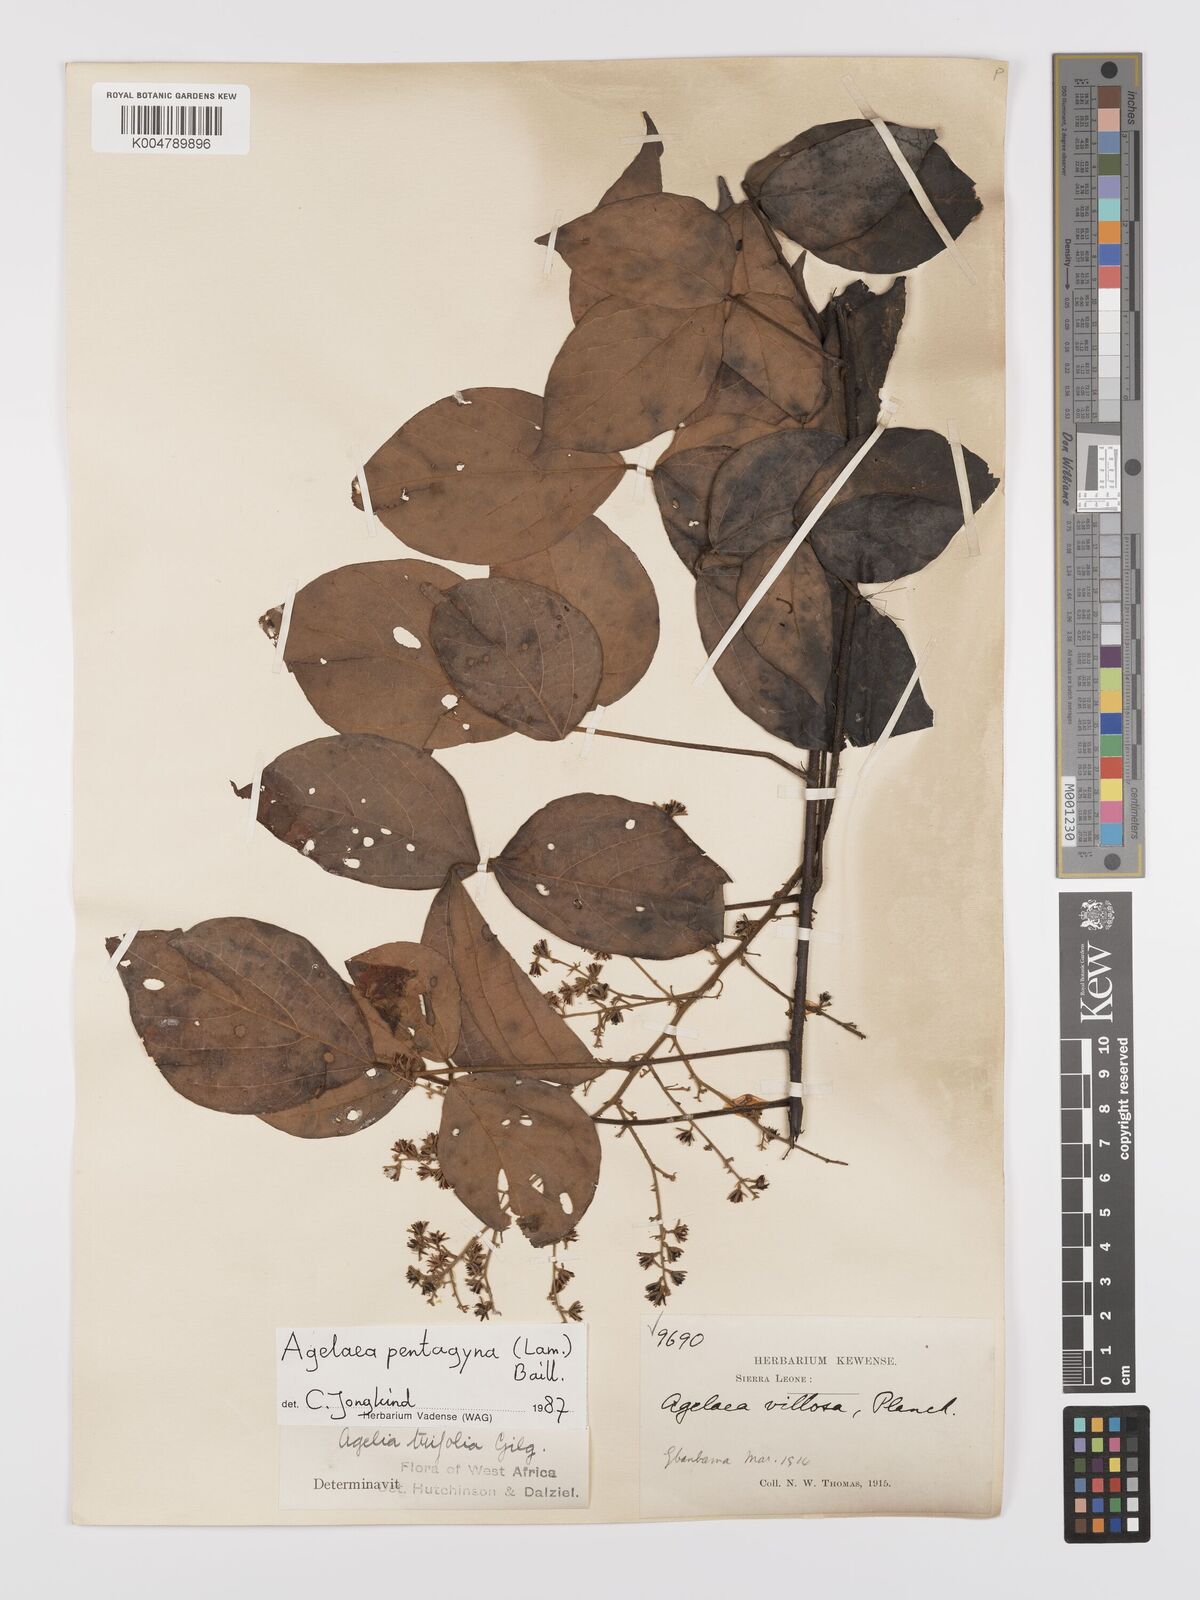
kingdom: Plantae
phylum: Tracheophyta
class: Magnoliopsida
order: Oxalidales
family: Connaraceae
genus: Agelaea
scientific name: Agelaea pentagyna
